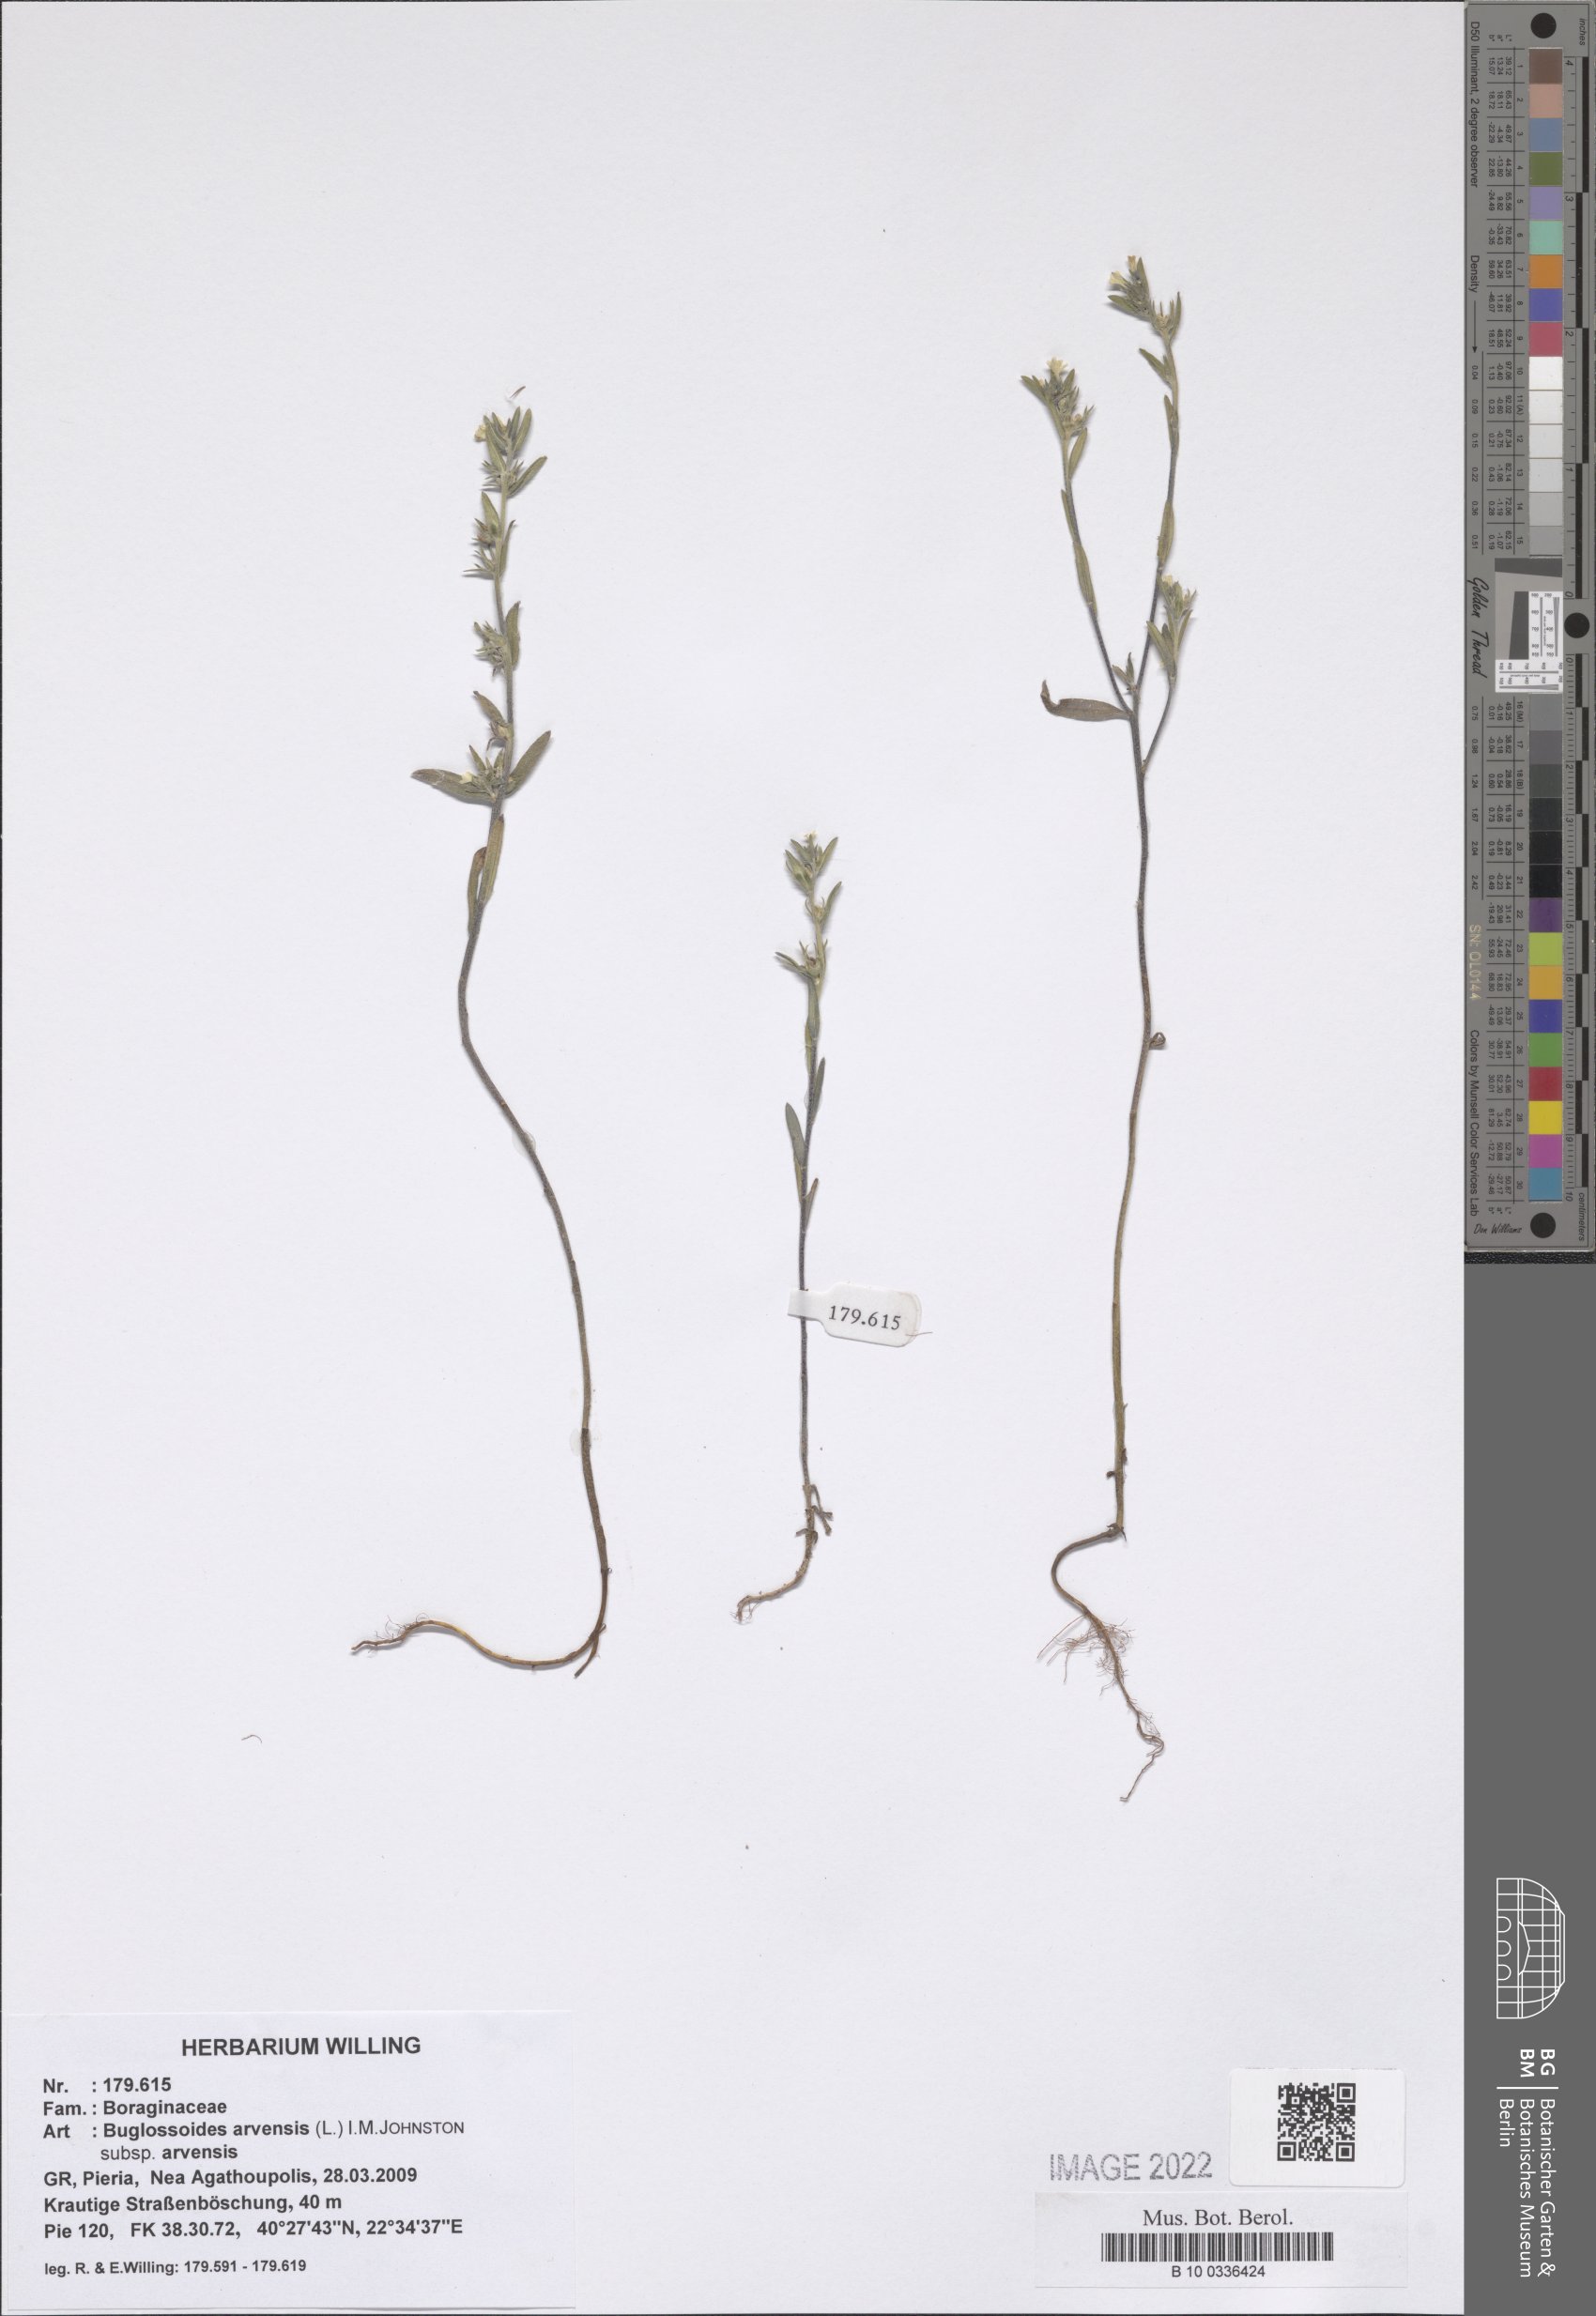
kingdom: Plantae
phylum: Tracheophyta
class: Magnoliopsida
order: Boraginales
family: Boraginaceae
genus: Buglossoides
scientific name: Buglossoides arvensis
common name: Corn gromwell
